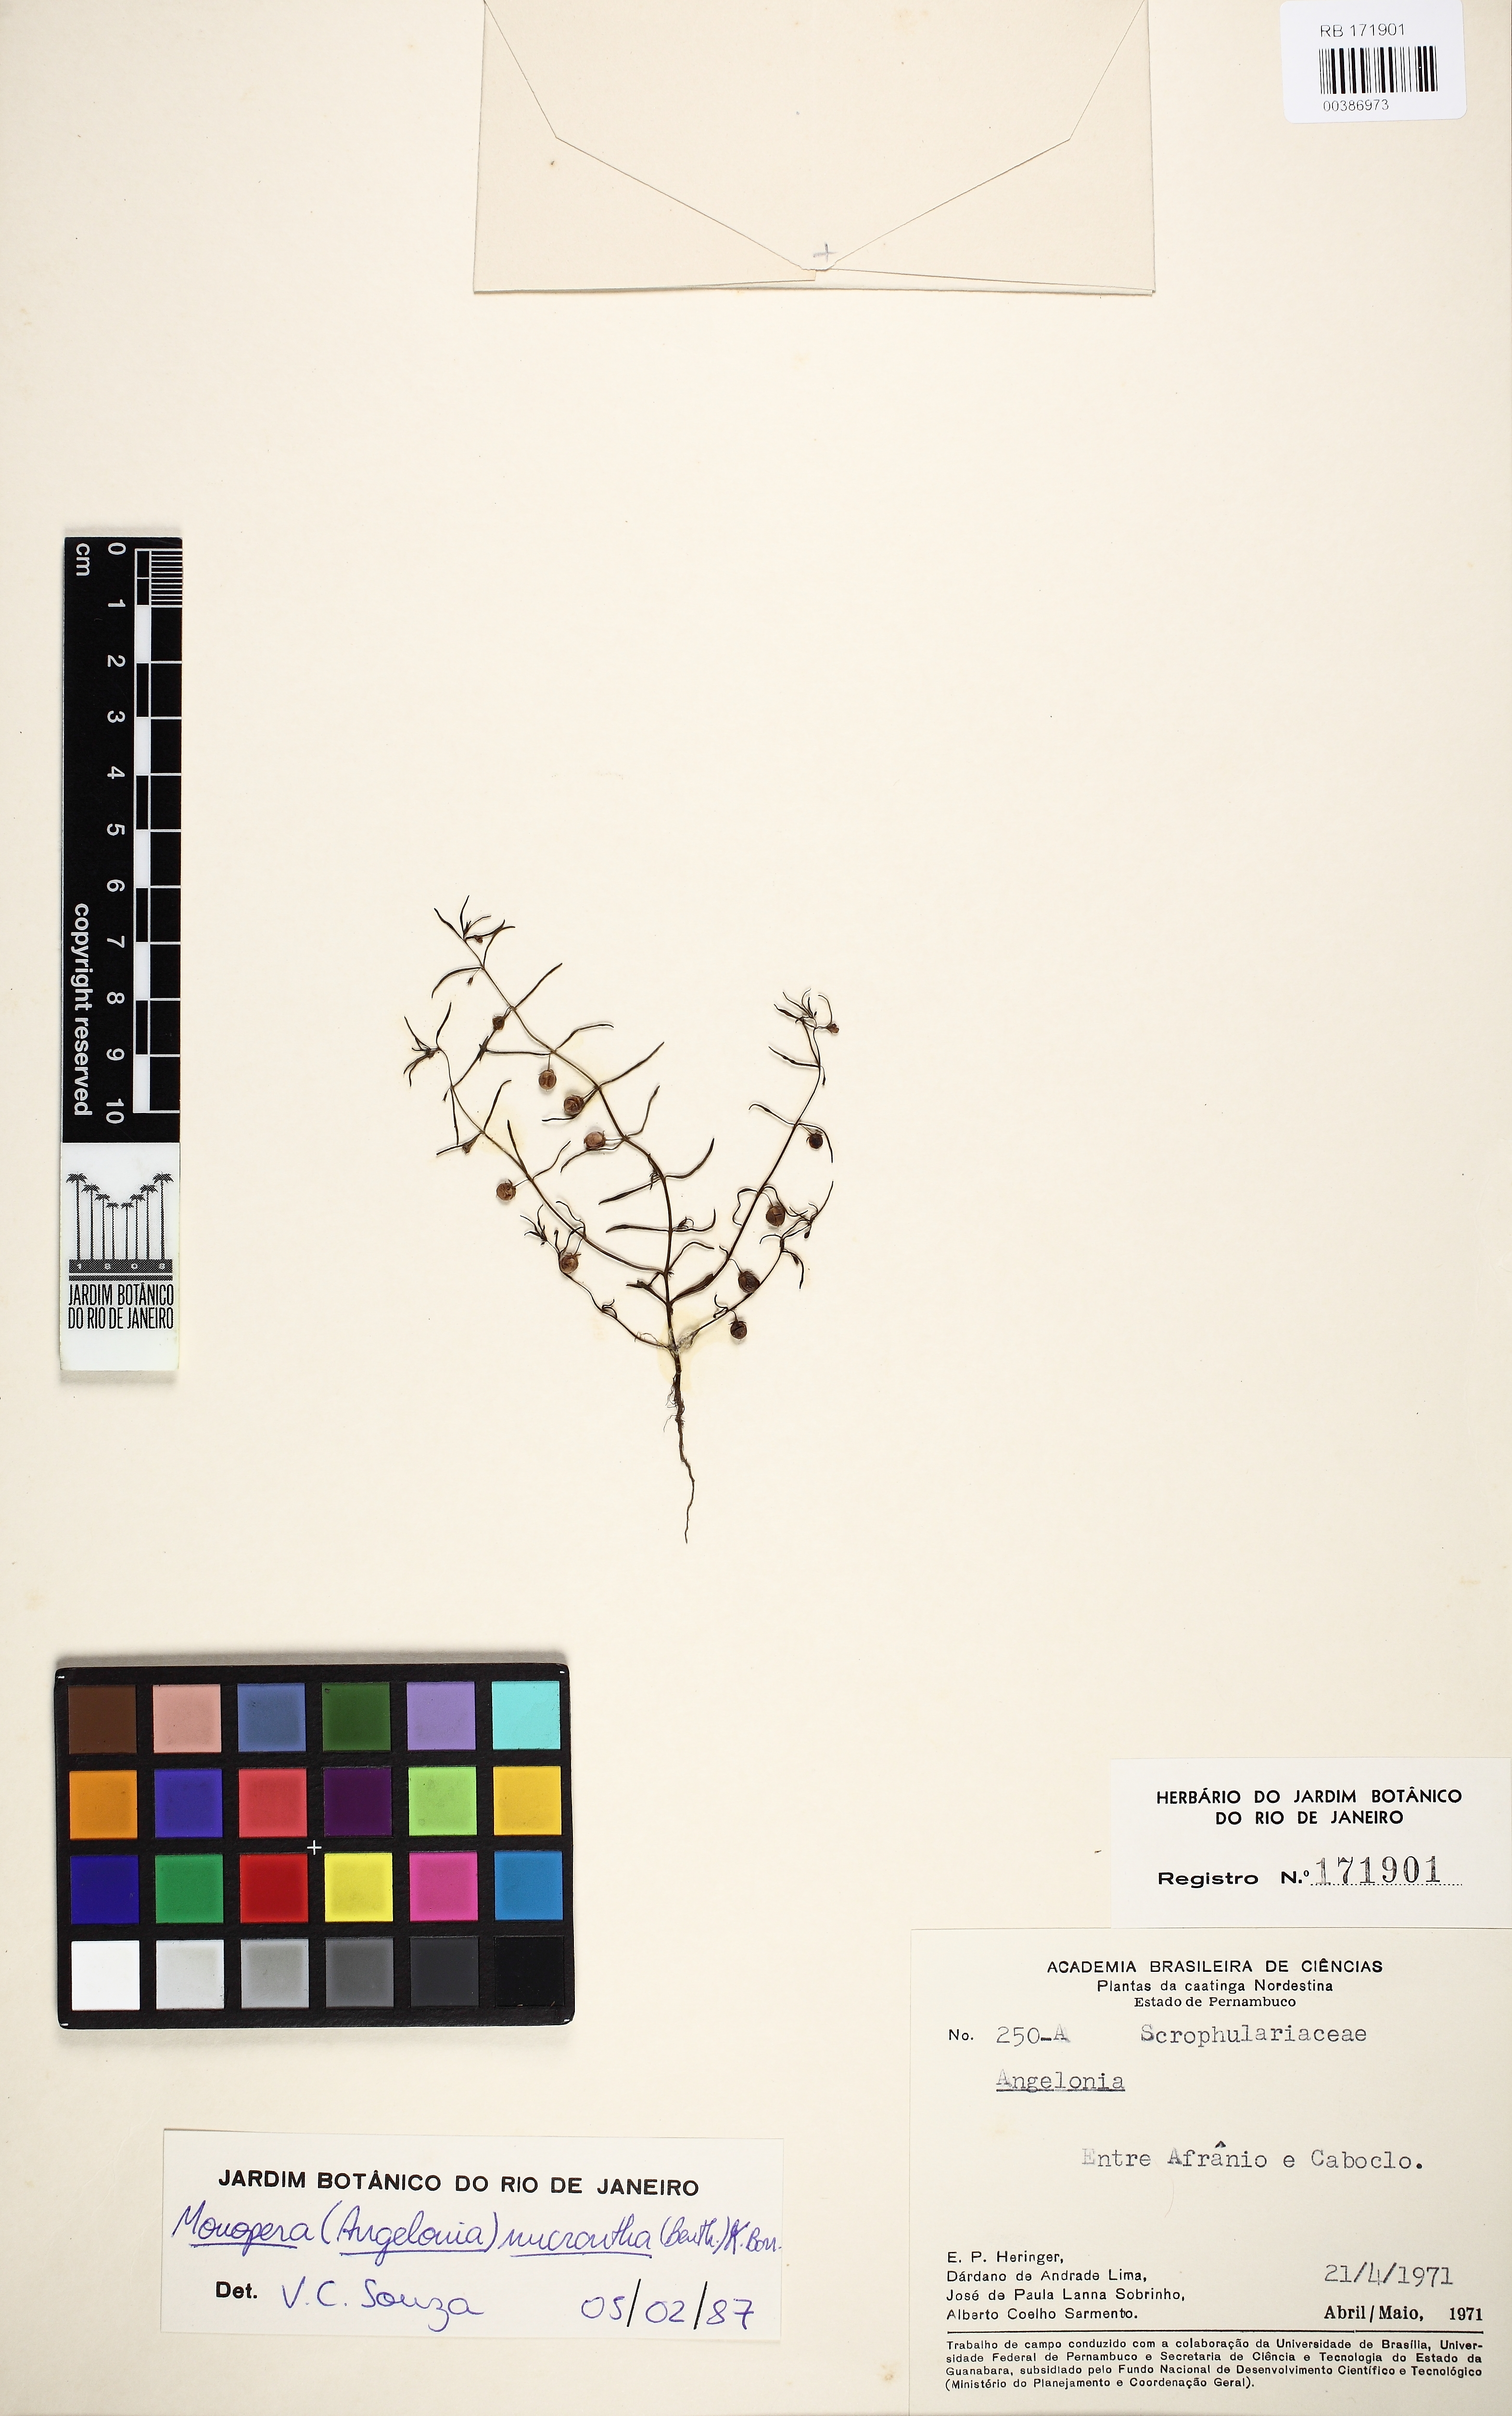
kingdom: Plantae
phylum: Tracheophyta
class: Magnoliopsida
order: Lamiales
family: Plantaginaceae
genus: Angelonia
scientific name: Angelonia micrantha
